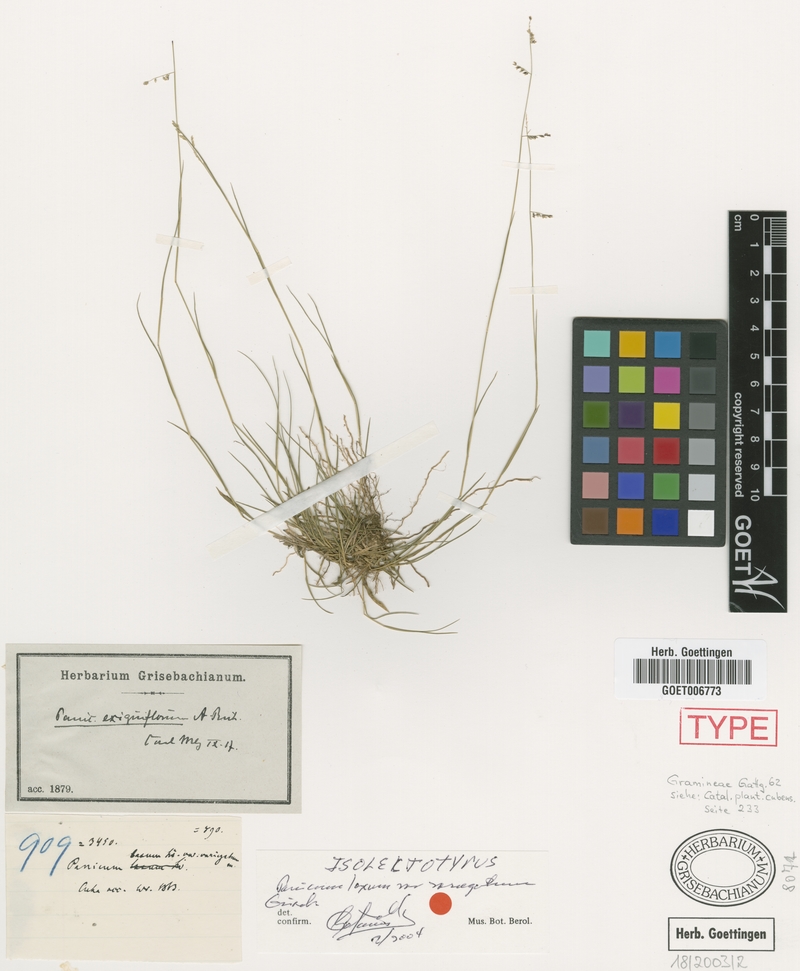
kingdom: Plantae
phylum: Tracheophyta
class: Liliopsida
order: Poales
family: Poaceae
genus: Steinchisma
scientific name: Steinchisma exiguiflorum
